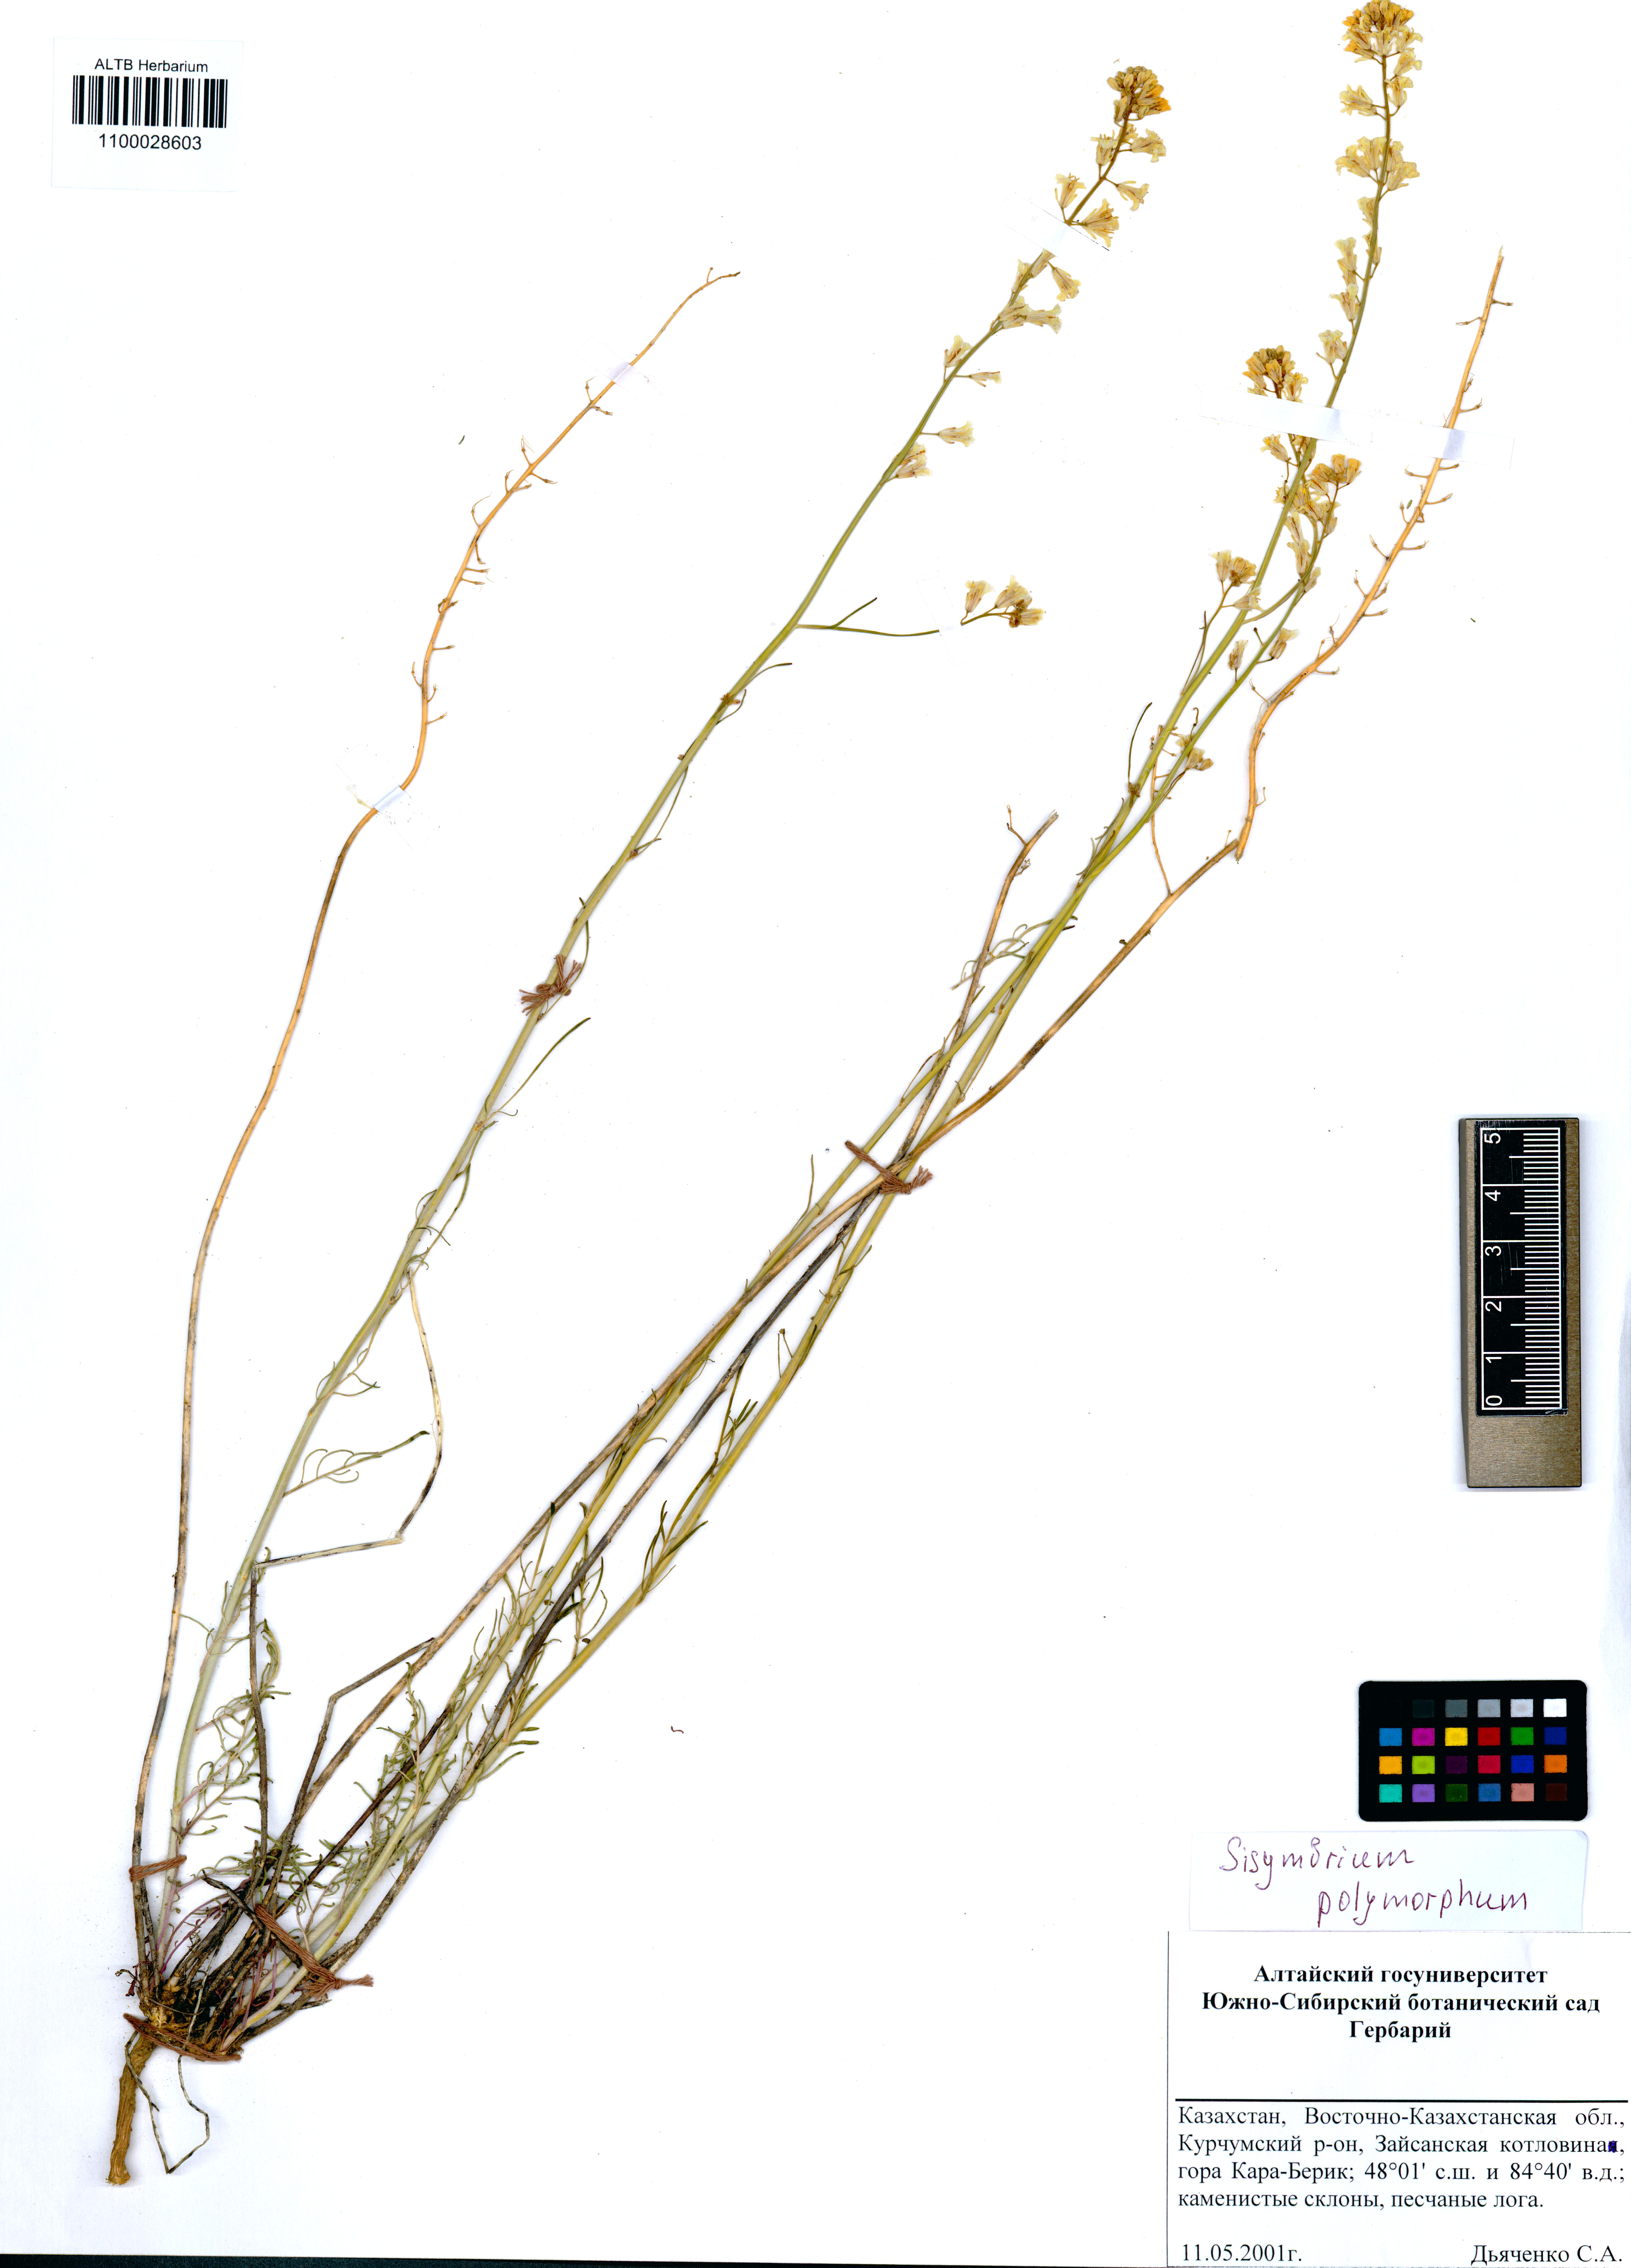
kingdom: Plantae
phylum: Tracheophyta
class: Magnoliopsida
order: Brassicales
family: Brassicaceae
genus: Sisymbrium
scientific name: Sisymbrium polymorphum
